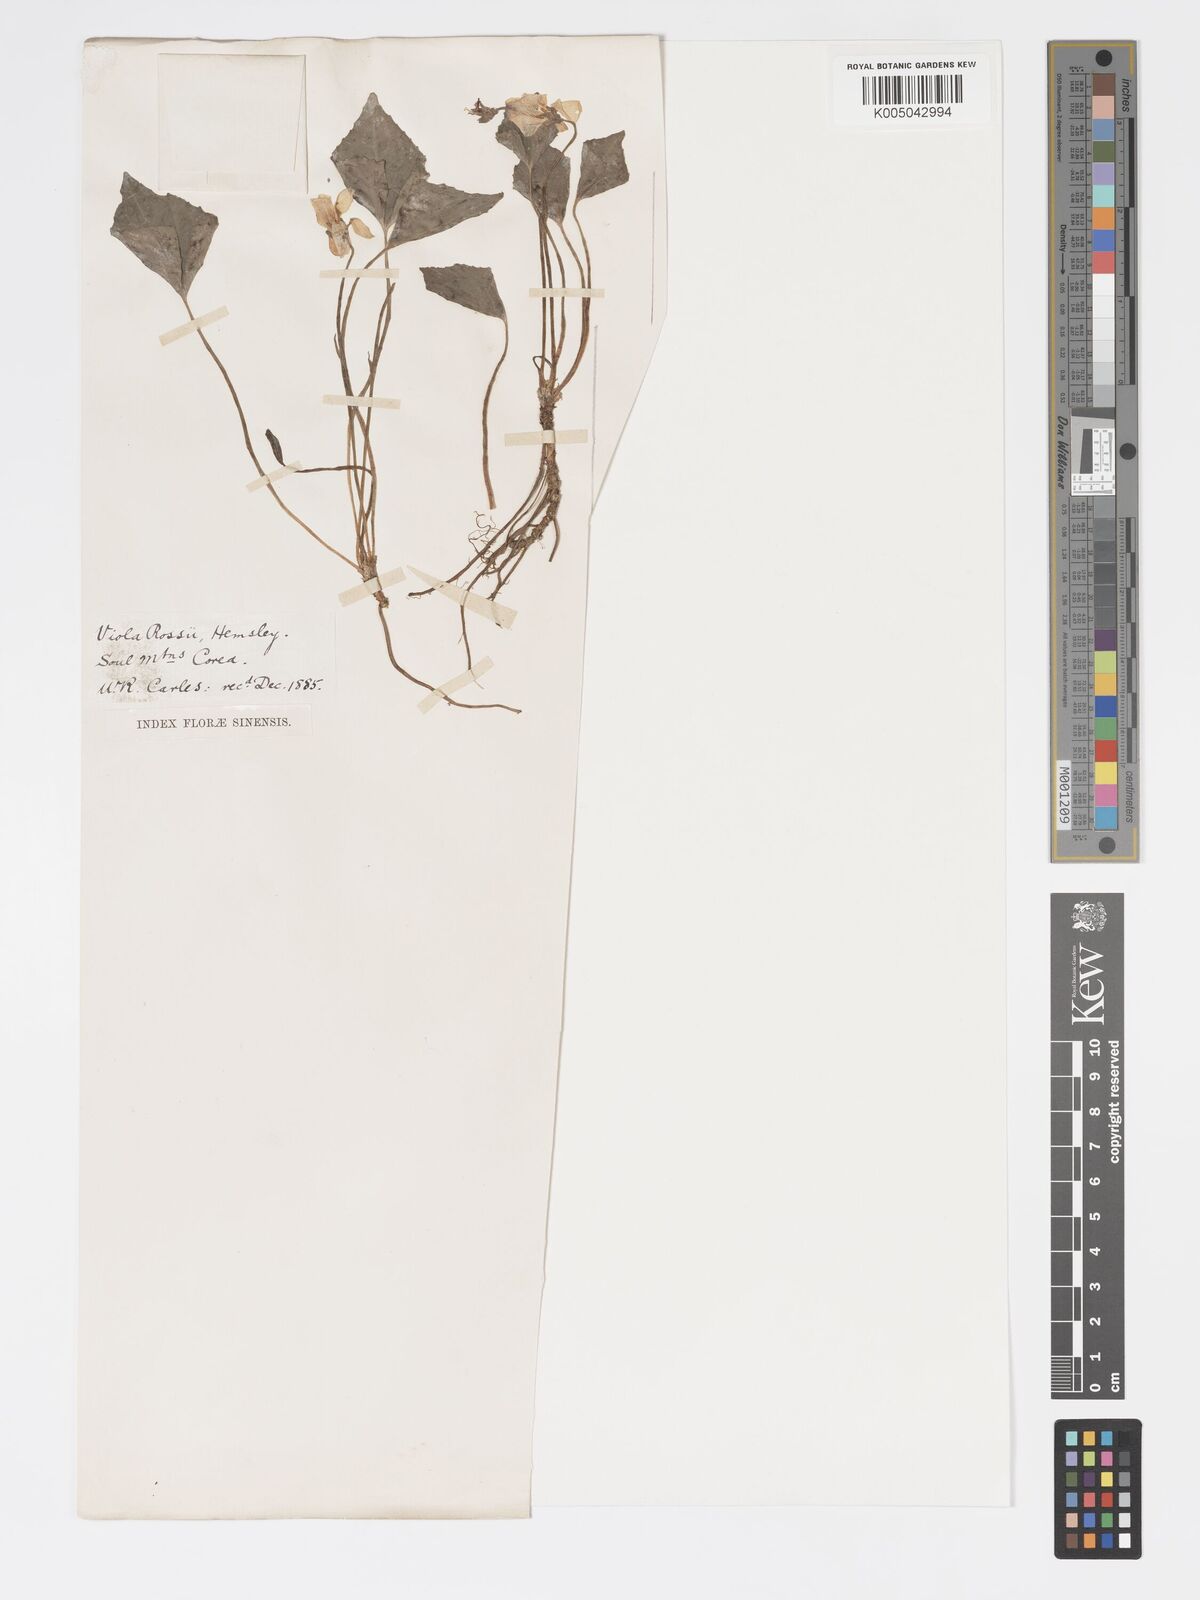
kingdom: Plantae
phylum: Tracheophyta
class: Magnoliopsida
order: Malpighiales
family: Violaceae
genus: Viola
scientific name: Viola rossii
